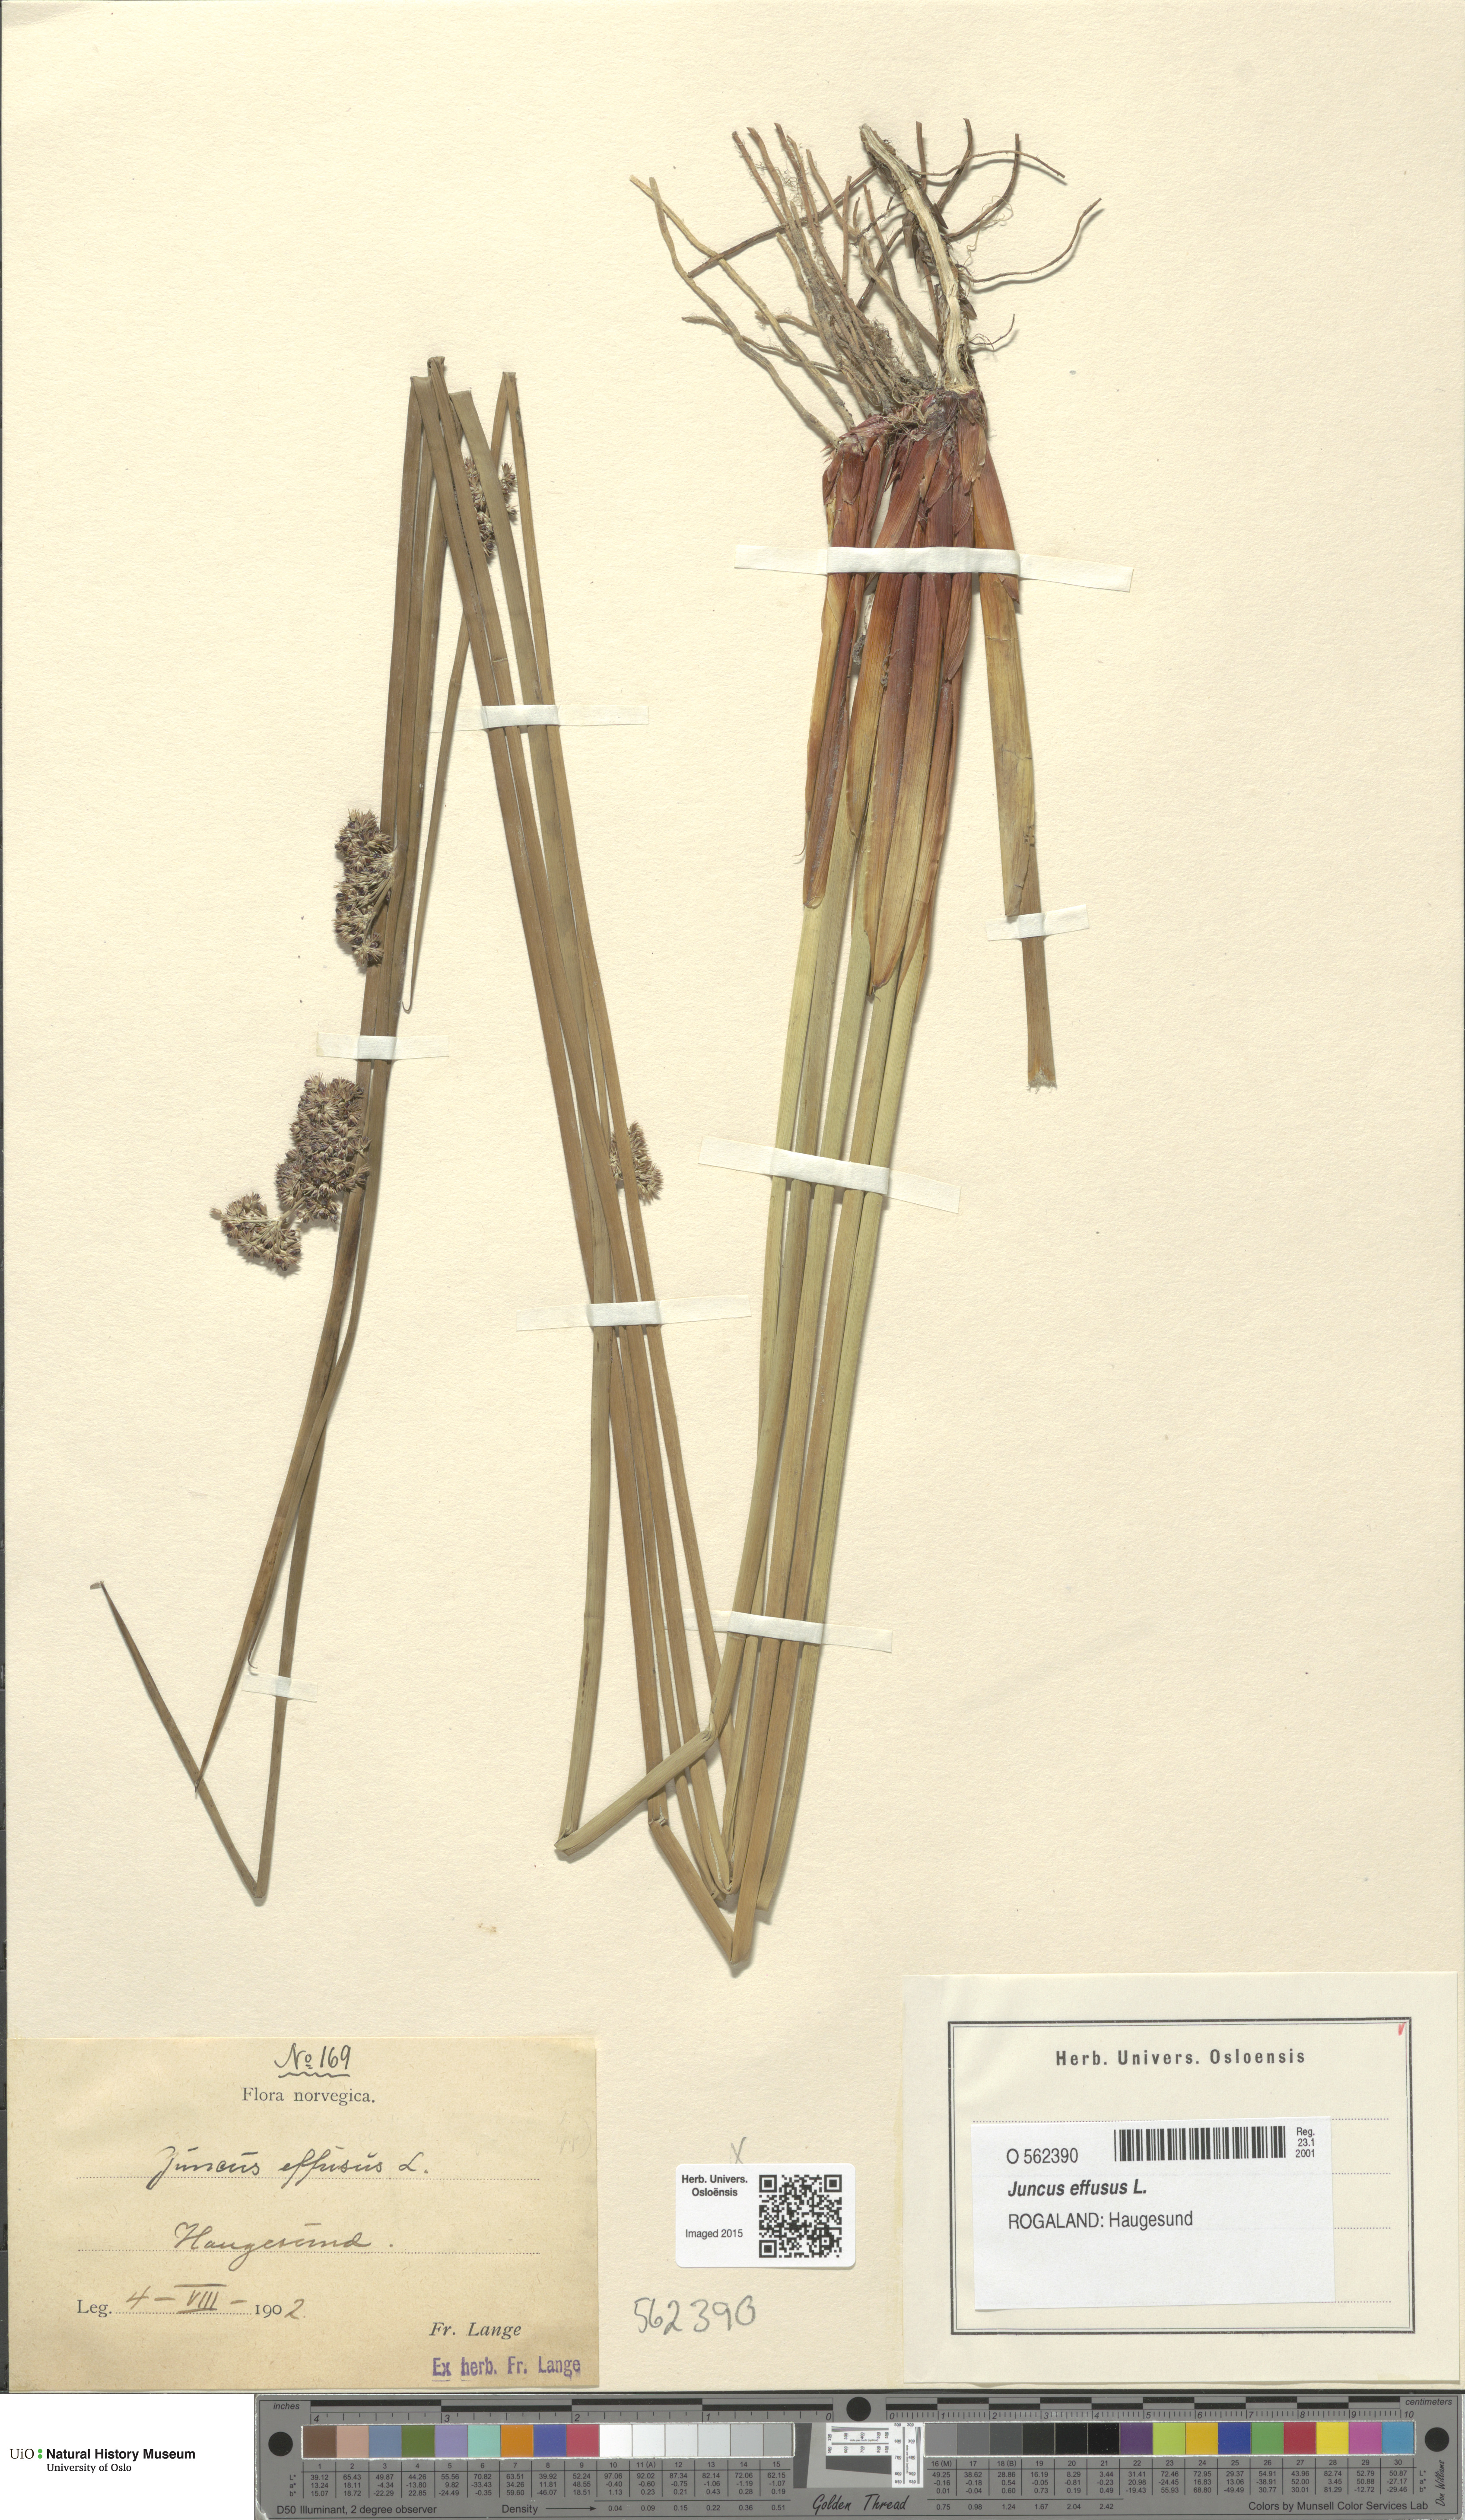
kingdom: Plantae
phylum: Tracheophyta
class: Liliopsida
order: Poales
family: Juncaceae
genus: Juncus
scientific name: Juncus effusus
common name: Soft rush
